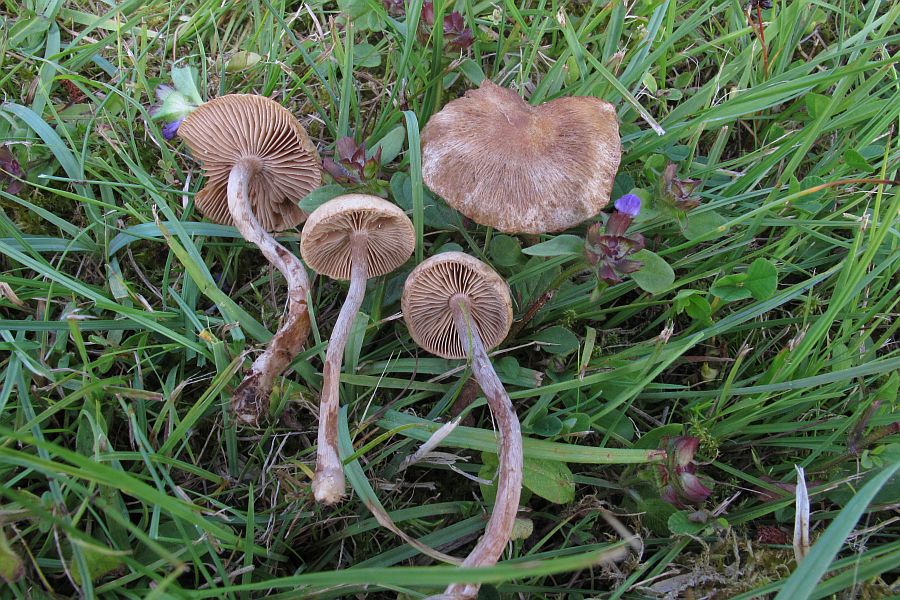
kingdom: Fungi
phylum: Basidiomycota
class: Agaricomycetes
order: Agaricales
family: Inocybaceae
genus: Inocybe
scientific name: Inocybe lacera
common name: laset trævlhat
